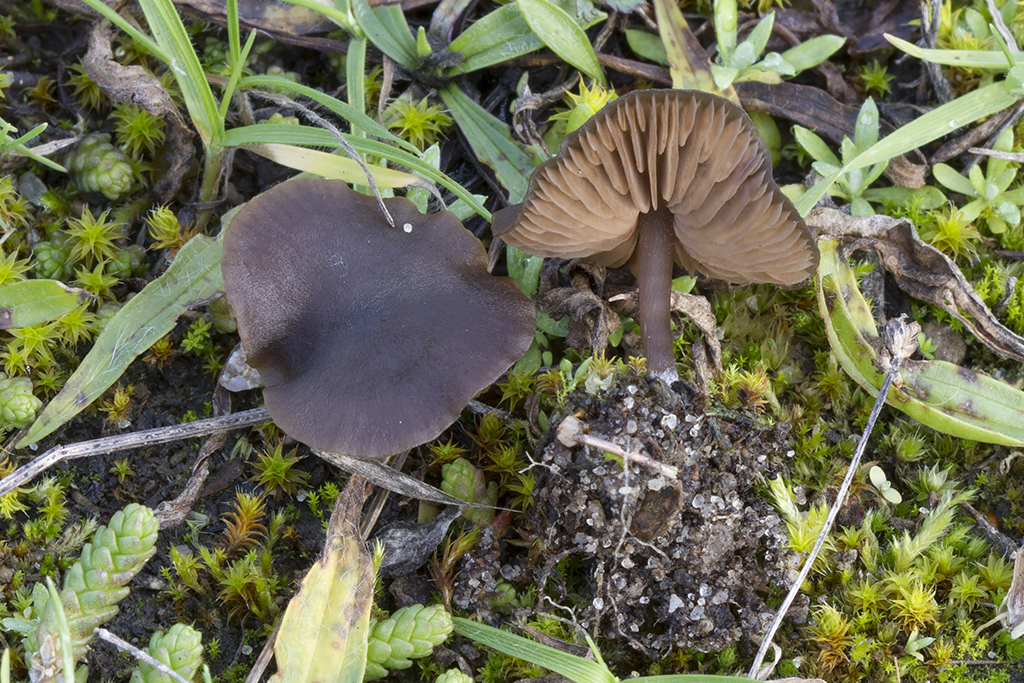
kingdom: Fungi
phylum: Basidiomycota
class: Agaricomycetes
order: Agaricales
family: Entolomataceae
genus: Entoloma
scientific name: Entoloma vindobonense
